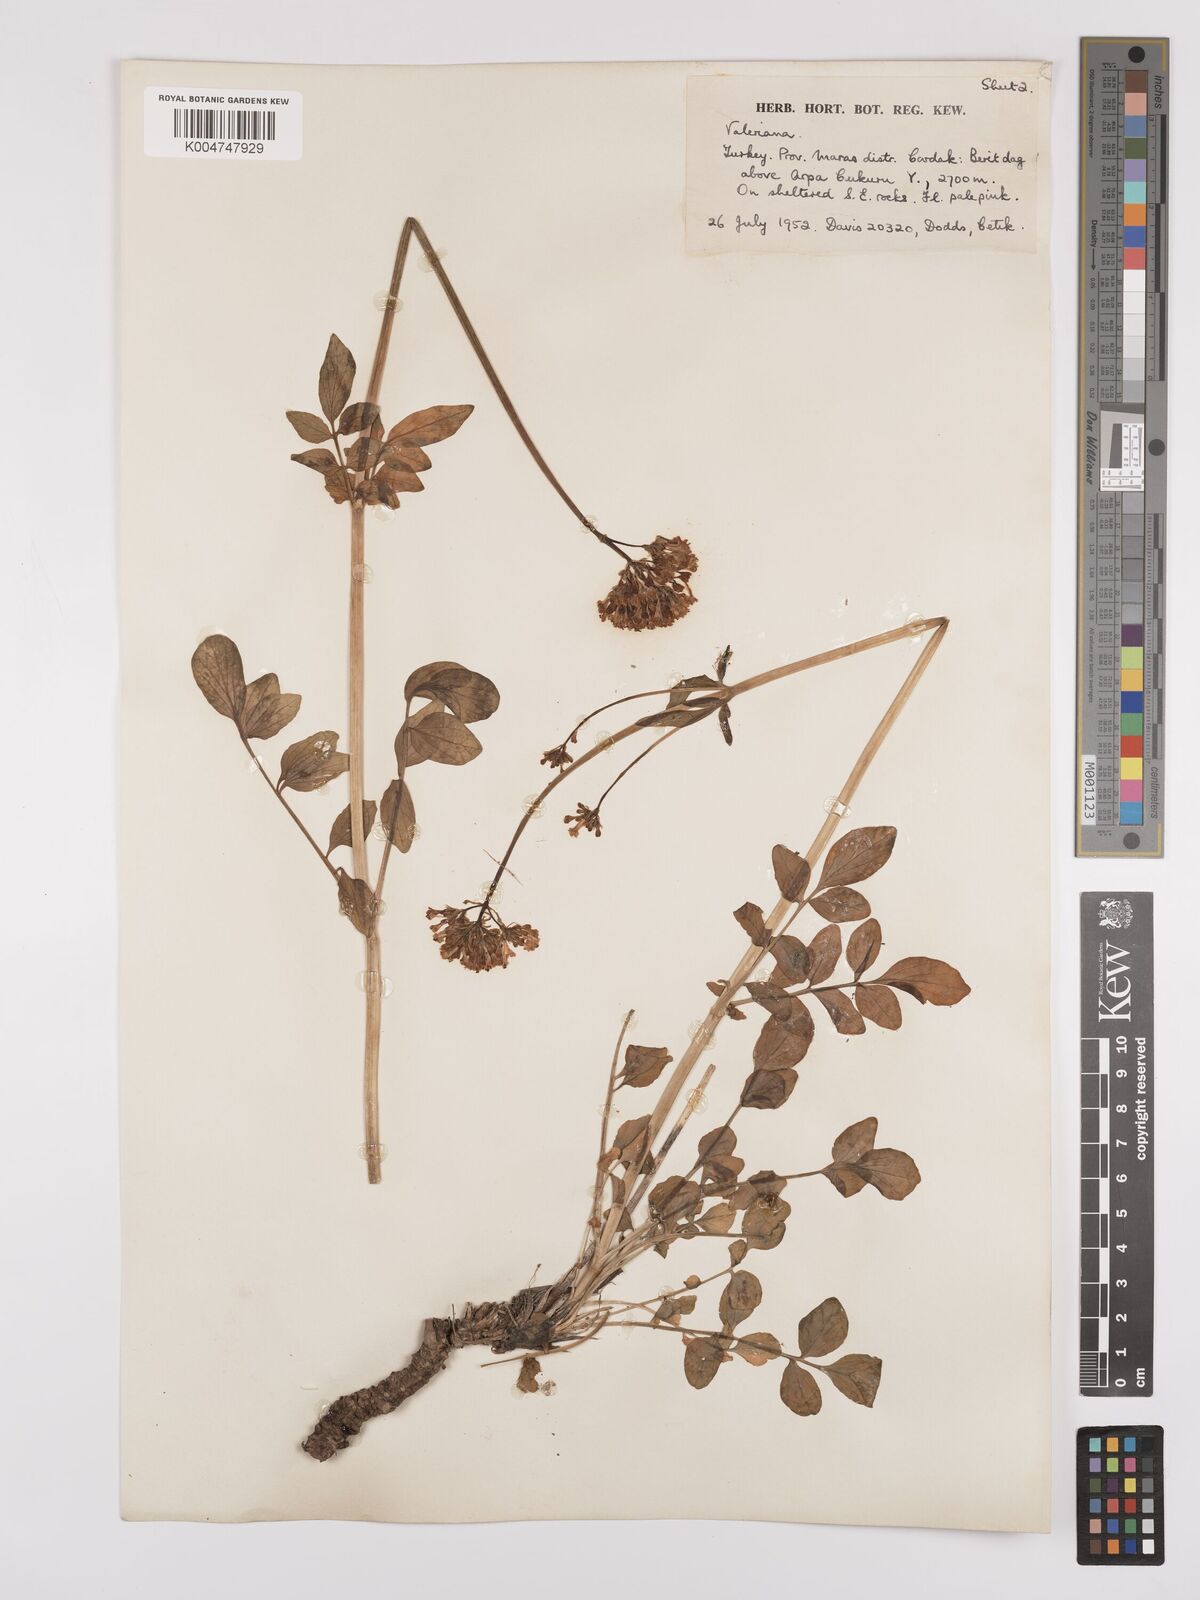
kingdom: Plantae
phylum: Tracheophyta
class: Magnoliopsida
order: Dipsacales
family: Caprifoliaceae
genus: Valeriana
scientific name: Valeriana
